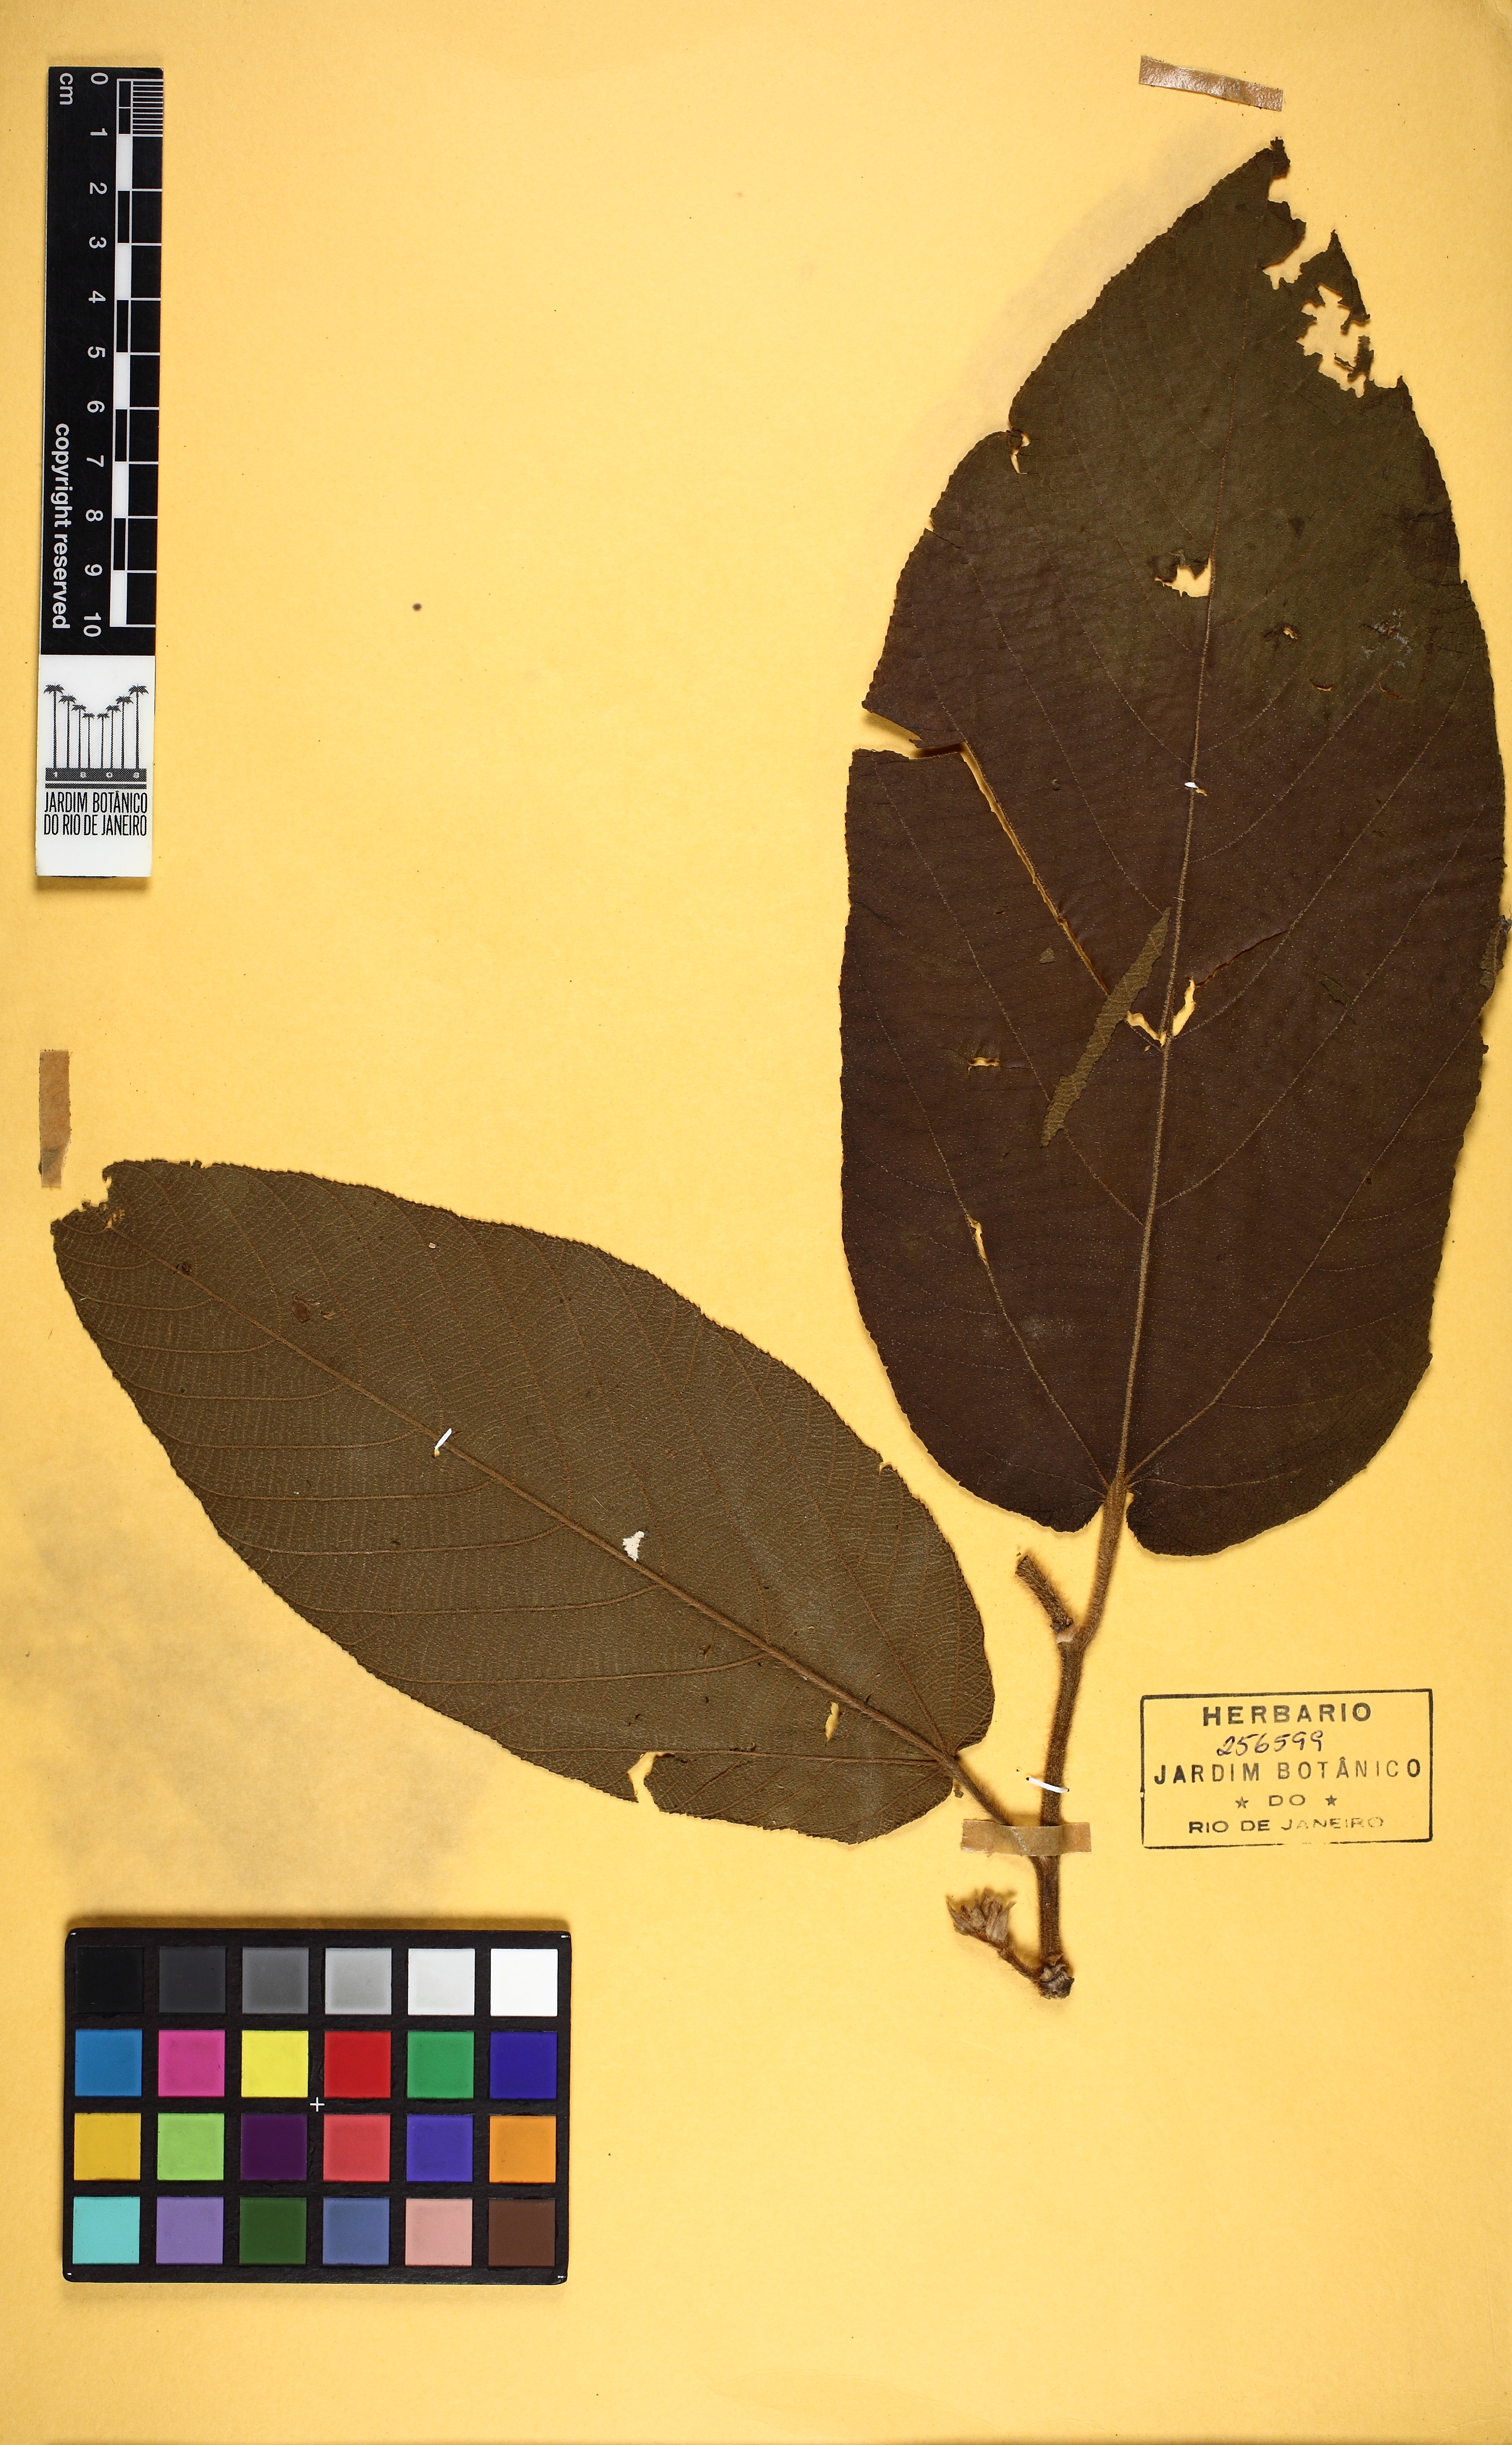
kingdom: Plantae
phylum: Tracheophyta
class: Magnoliopsida
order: Malvales
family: Malvaceae
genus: Apeiba
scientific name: Apeiba tibourbou
